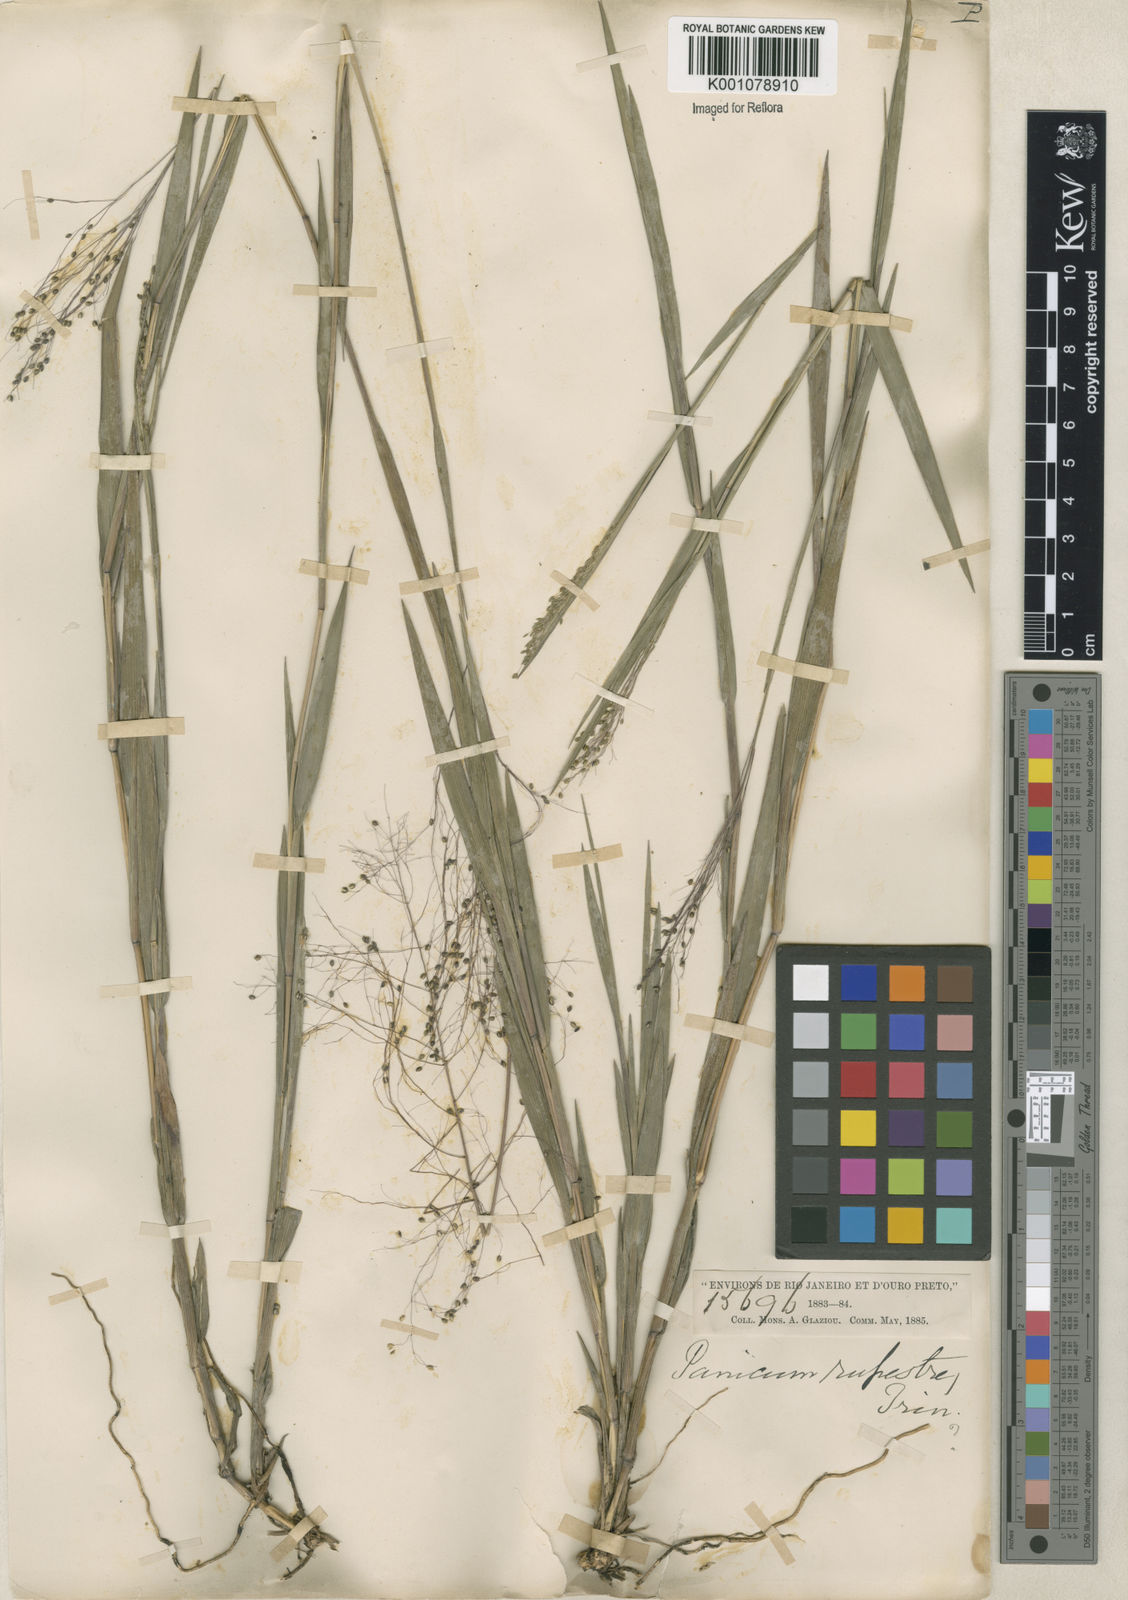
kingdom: Plantae
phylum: Tracheophyta
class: Liliopsida
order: Poales
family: Poaceae
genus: Trichanthecium
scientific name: Trichanthecium cyanescens
